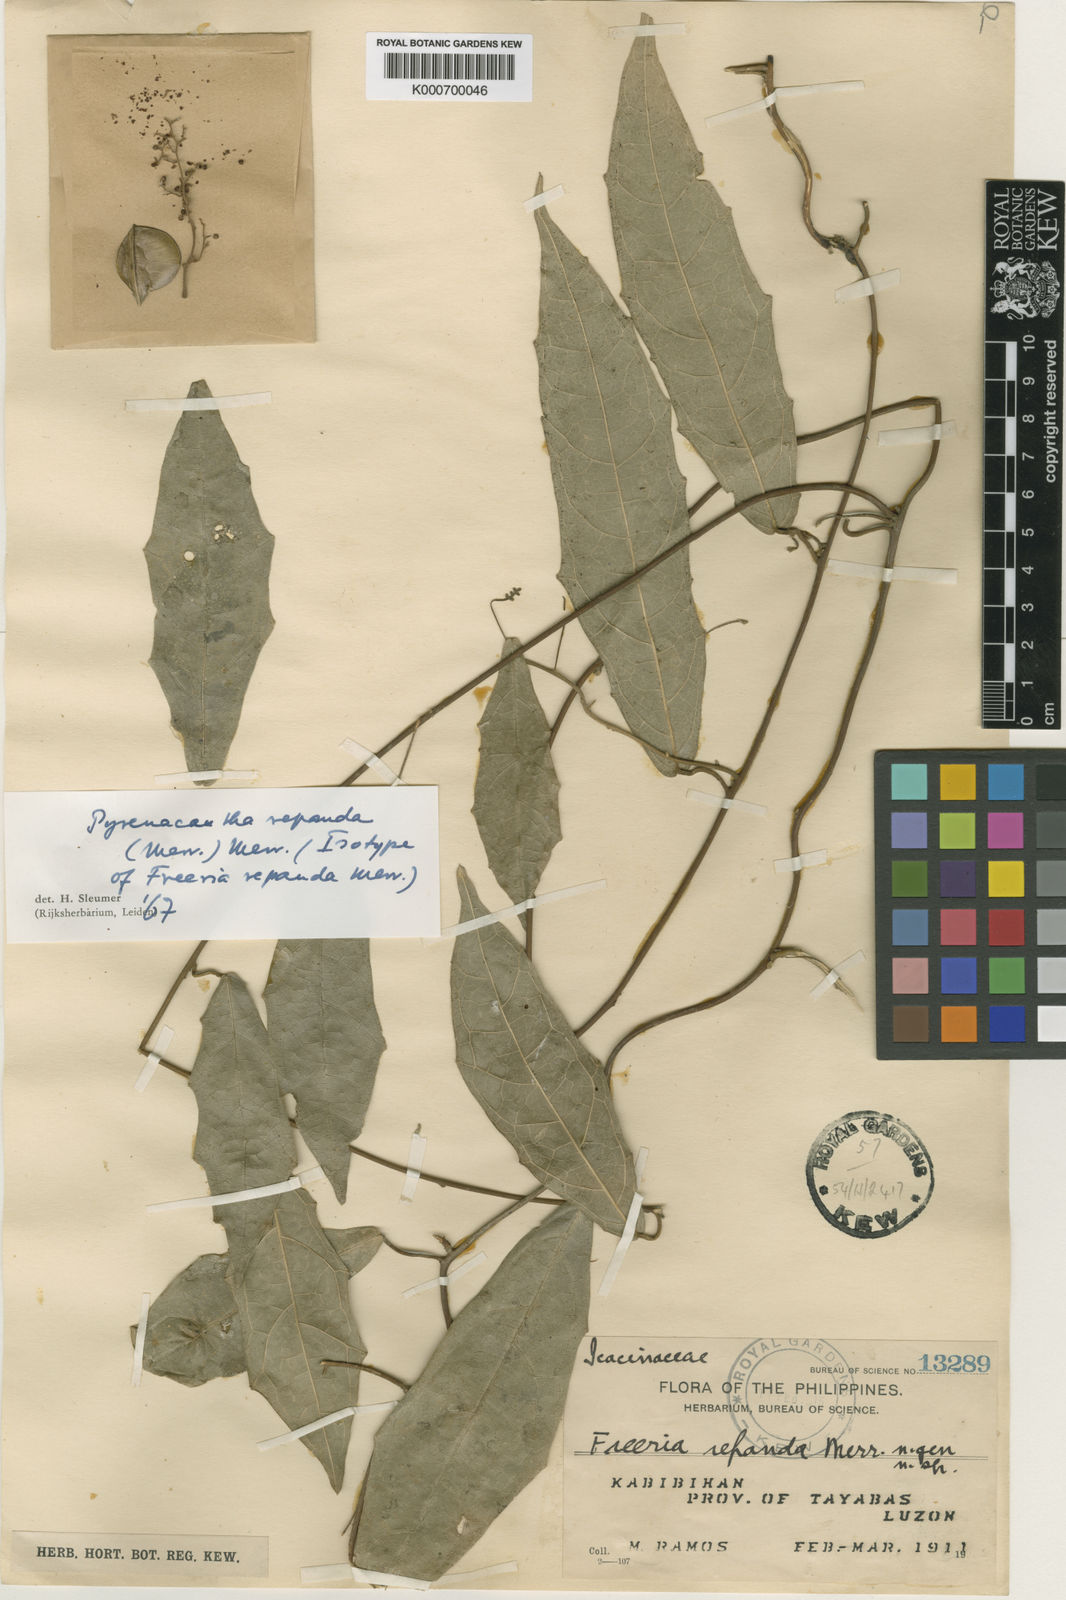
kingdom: Plantae
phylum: Tracheophyta
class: Magnoliopsida
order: Icacinales
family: Icacinaceae
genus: Pyrenacantha
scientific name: Pyrenacantha repanda
